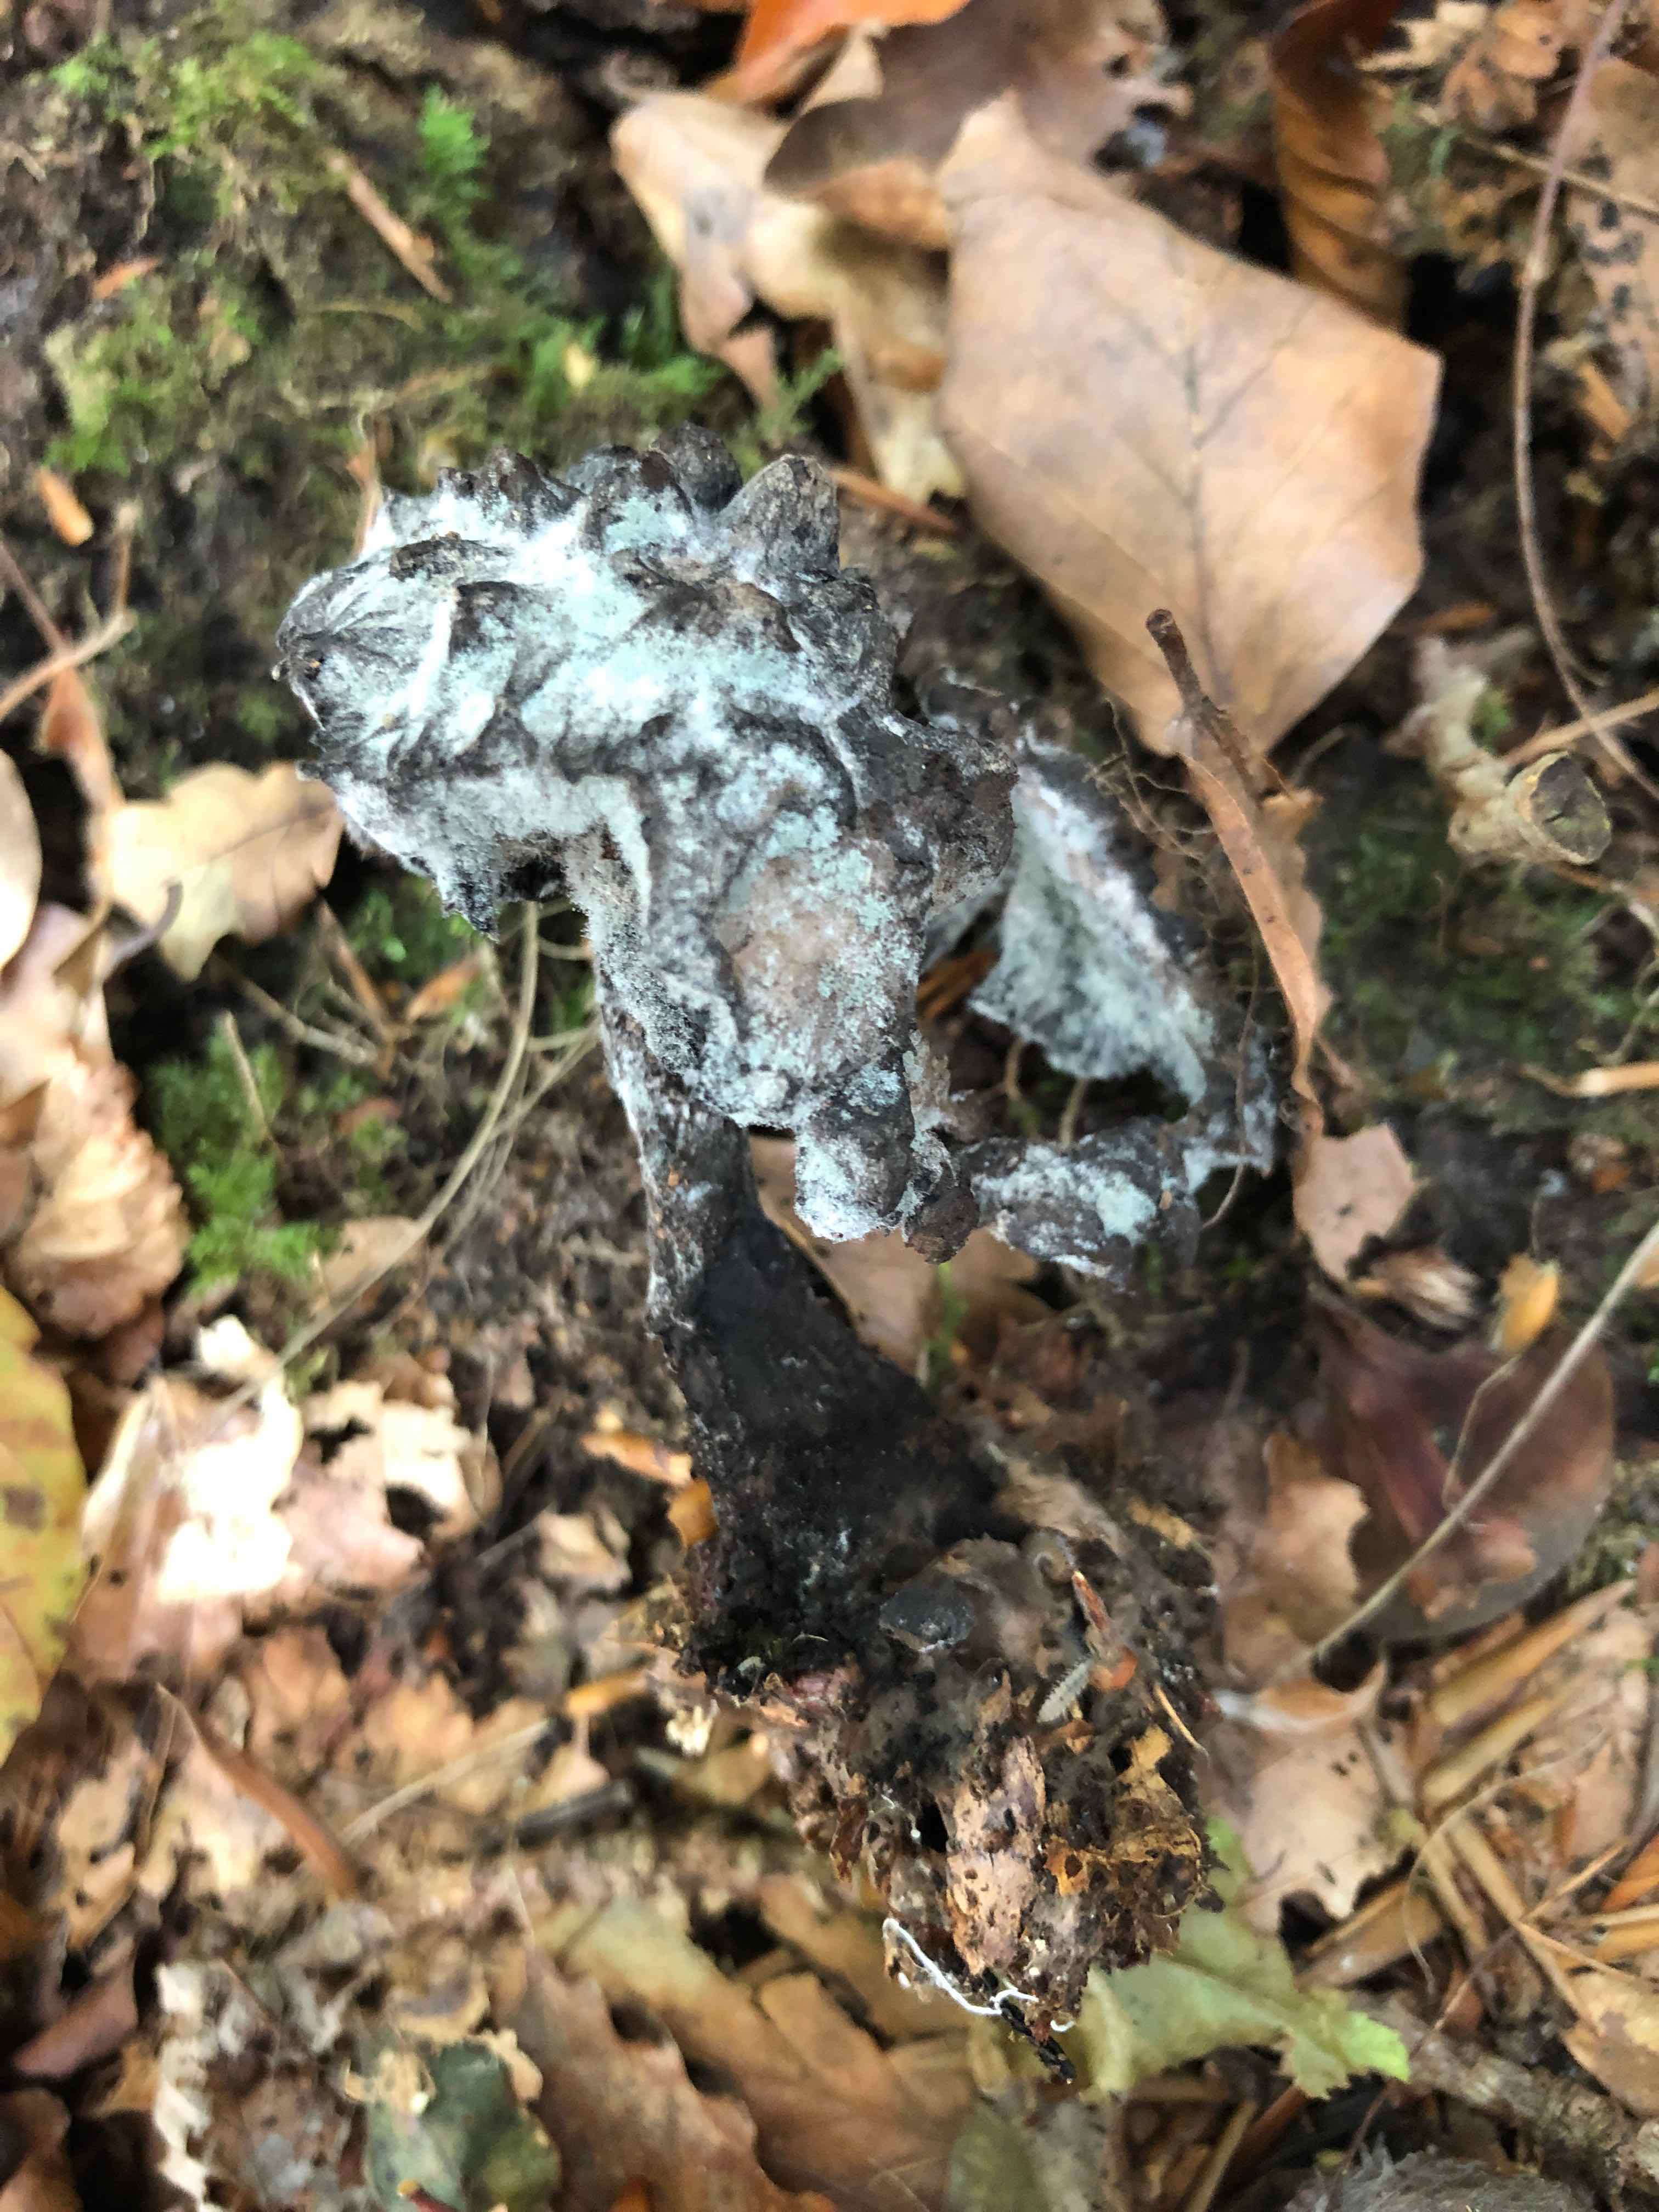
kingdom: Fungi
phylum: Basidiomycota
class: Agaricomycetes
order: Boletales
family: Boletaceae
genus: Strobilomyces
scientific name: Strobilomyces strobilaceus
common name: koglerørhat
